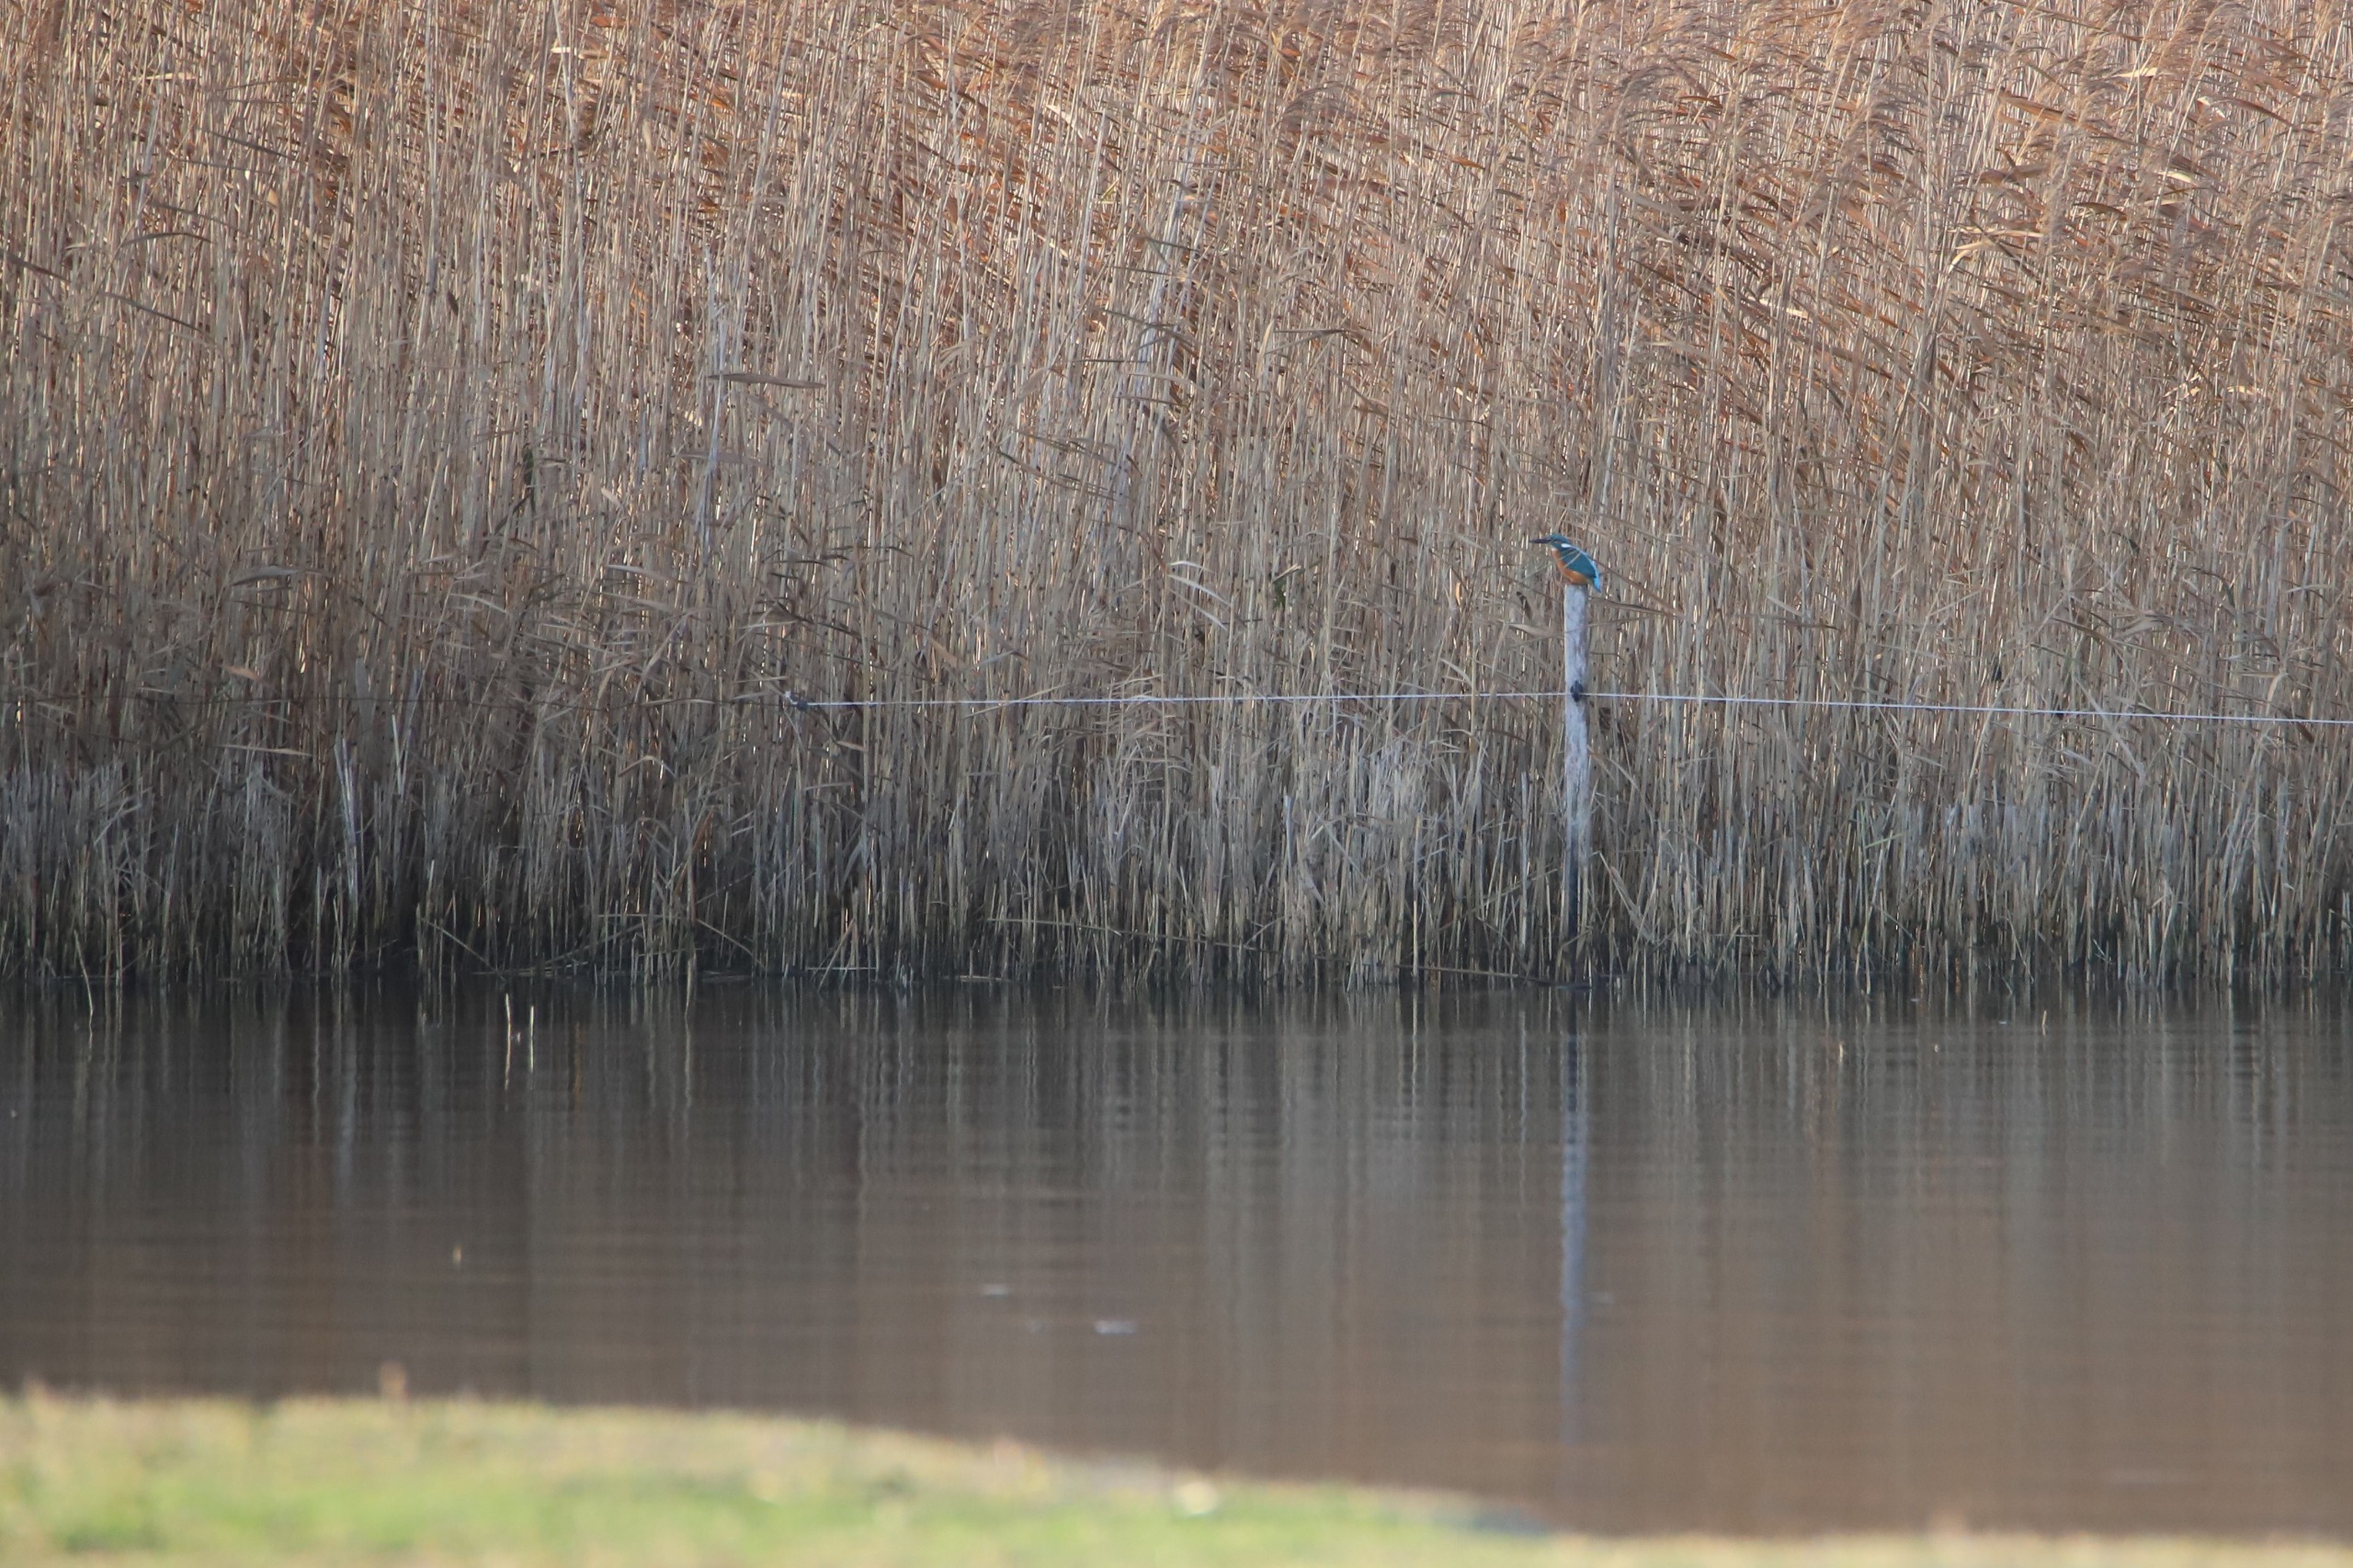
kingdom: Animalia
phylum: Chordata
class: Aves
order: Coraciiformes
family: Alcedinidae
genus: Alcedo
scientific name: Alcedo atthis
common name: Isfugl
